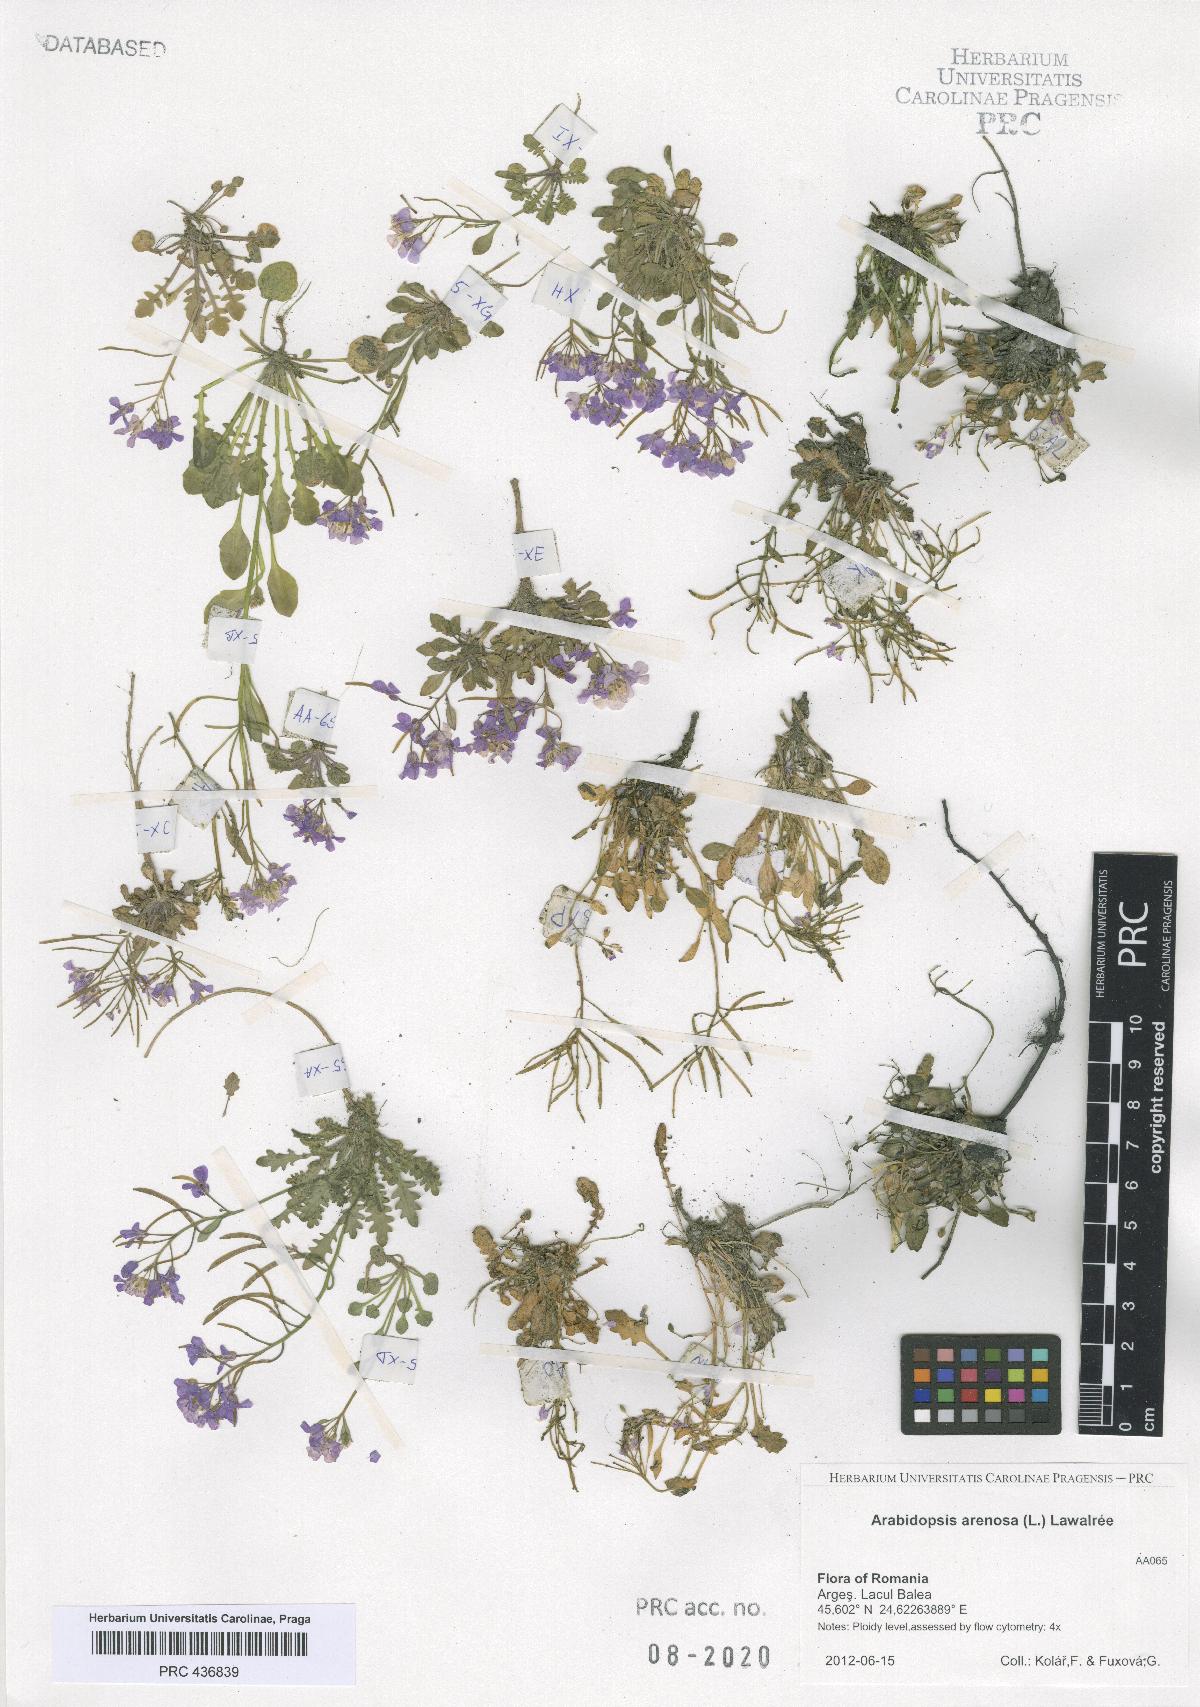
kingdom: Plantae
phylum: Tracheophyta
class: Magnoliopsida
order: Brassicales
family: Brassicaceae
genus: Arabidopsis
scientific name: Arabidopsis arenosa
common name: Sand rock-cress
